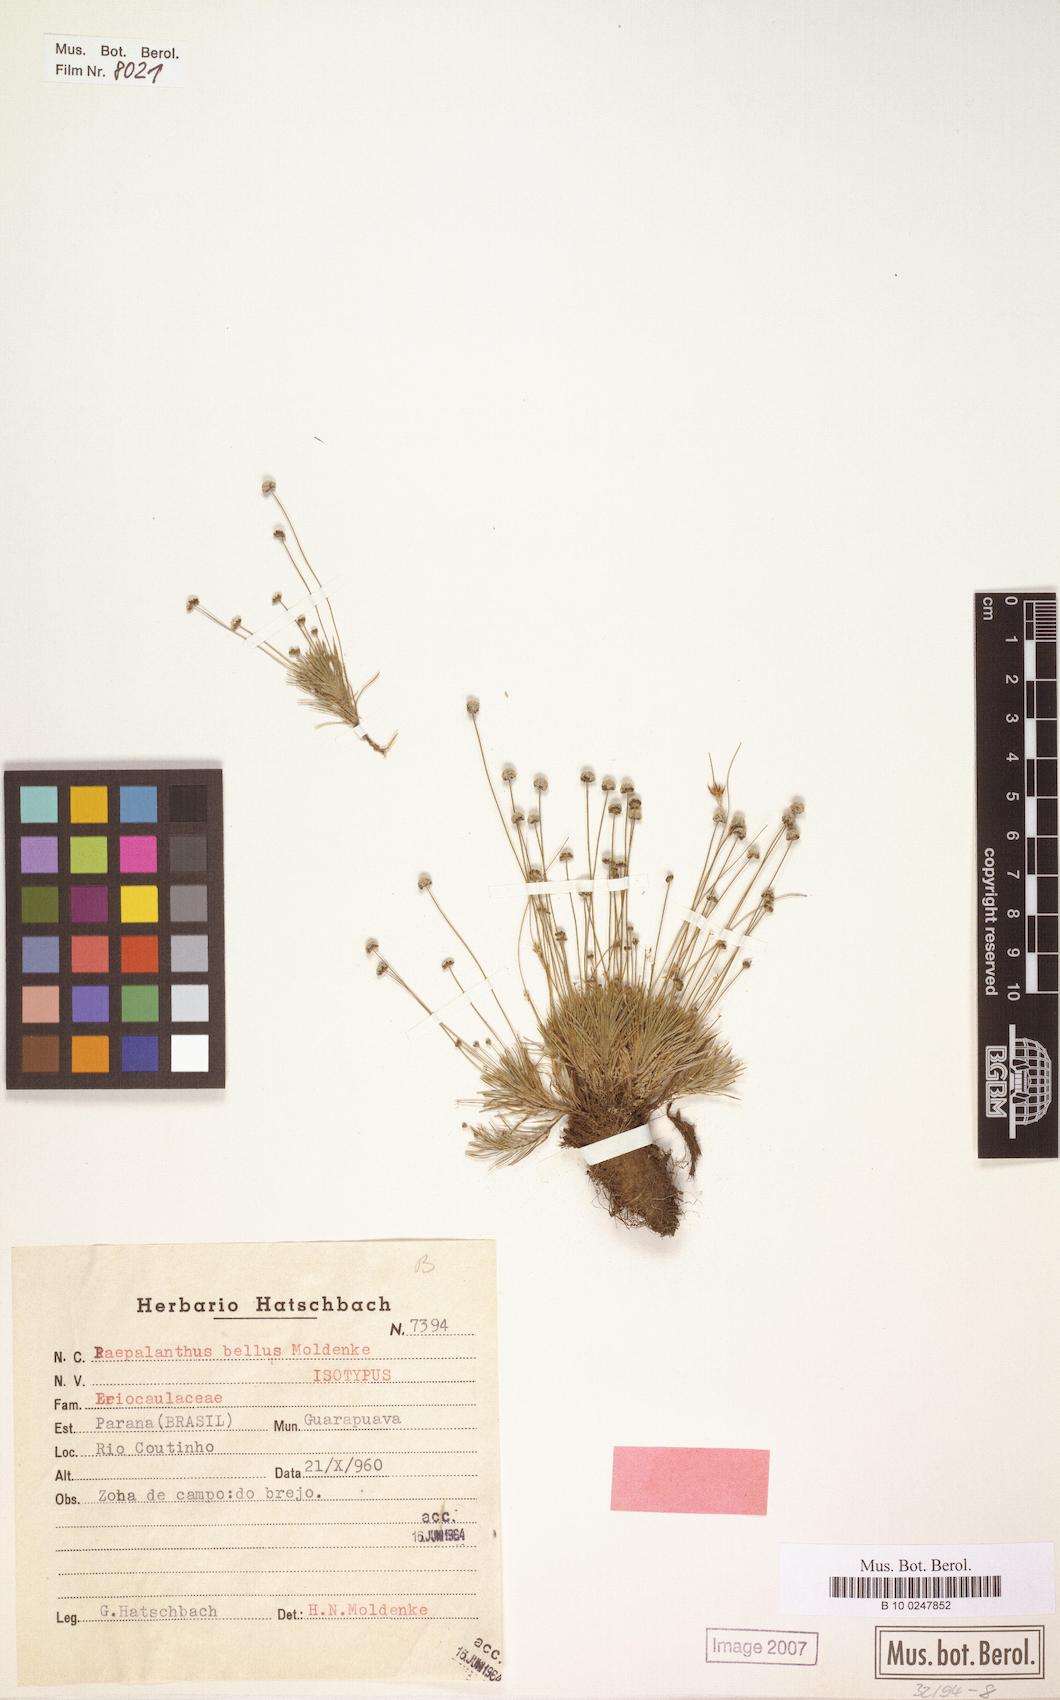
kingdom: Plantae
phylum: Tracheophyta
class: Liliopsida
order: Poales
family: Eriocaulaceae
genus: Paepalanthus
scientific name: Paepalanthus bellus
